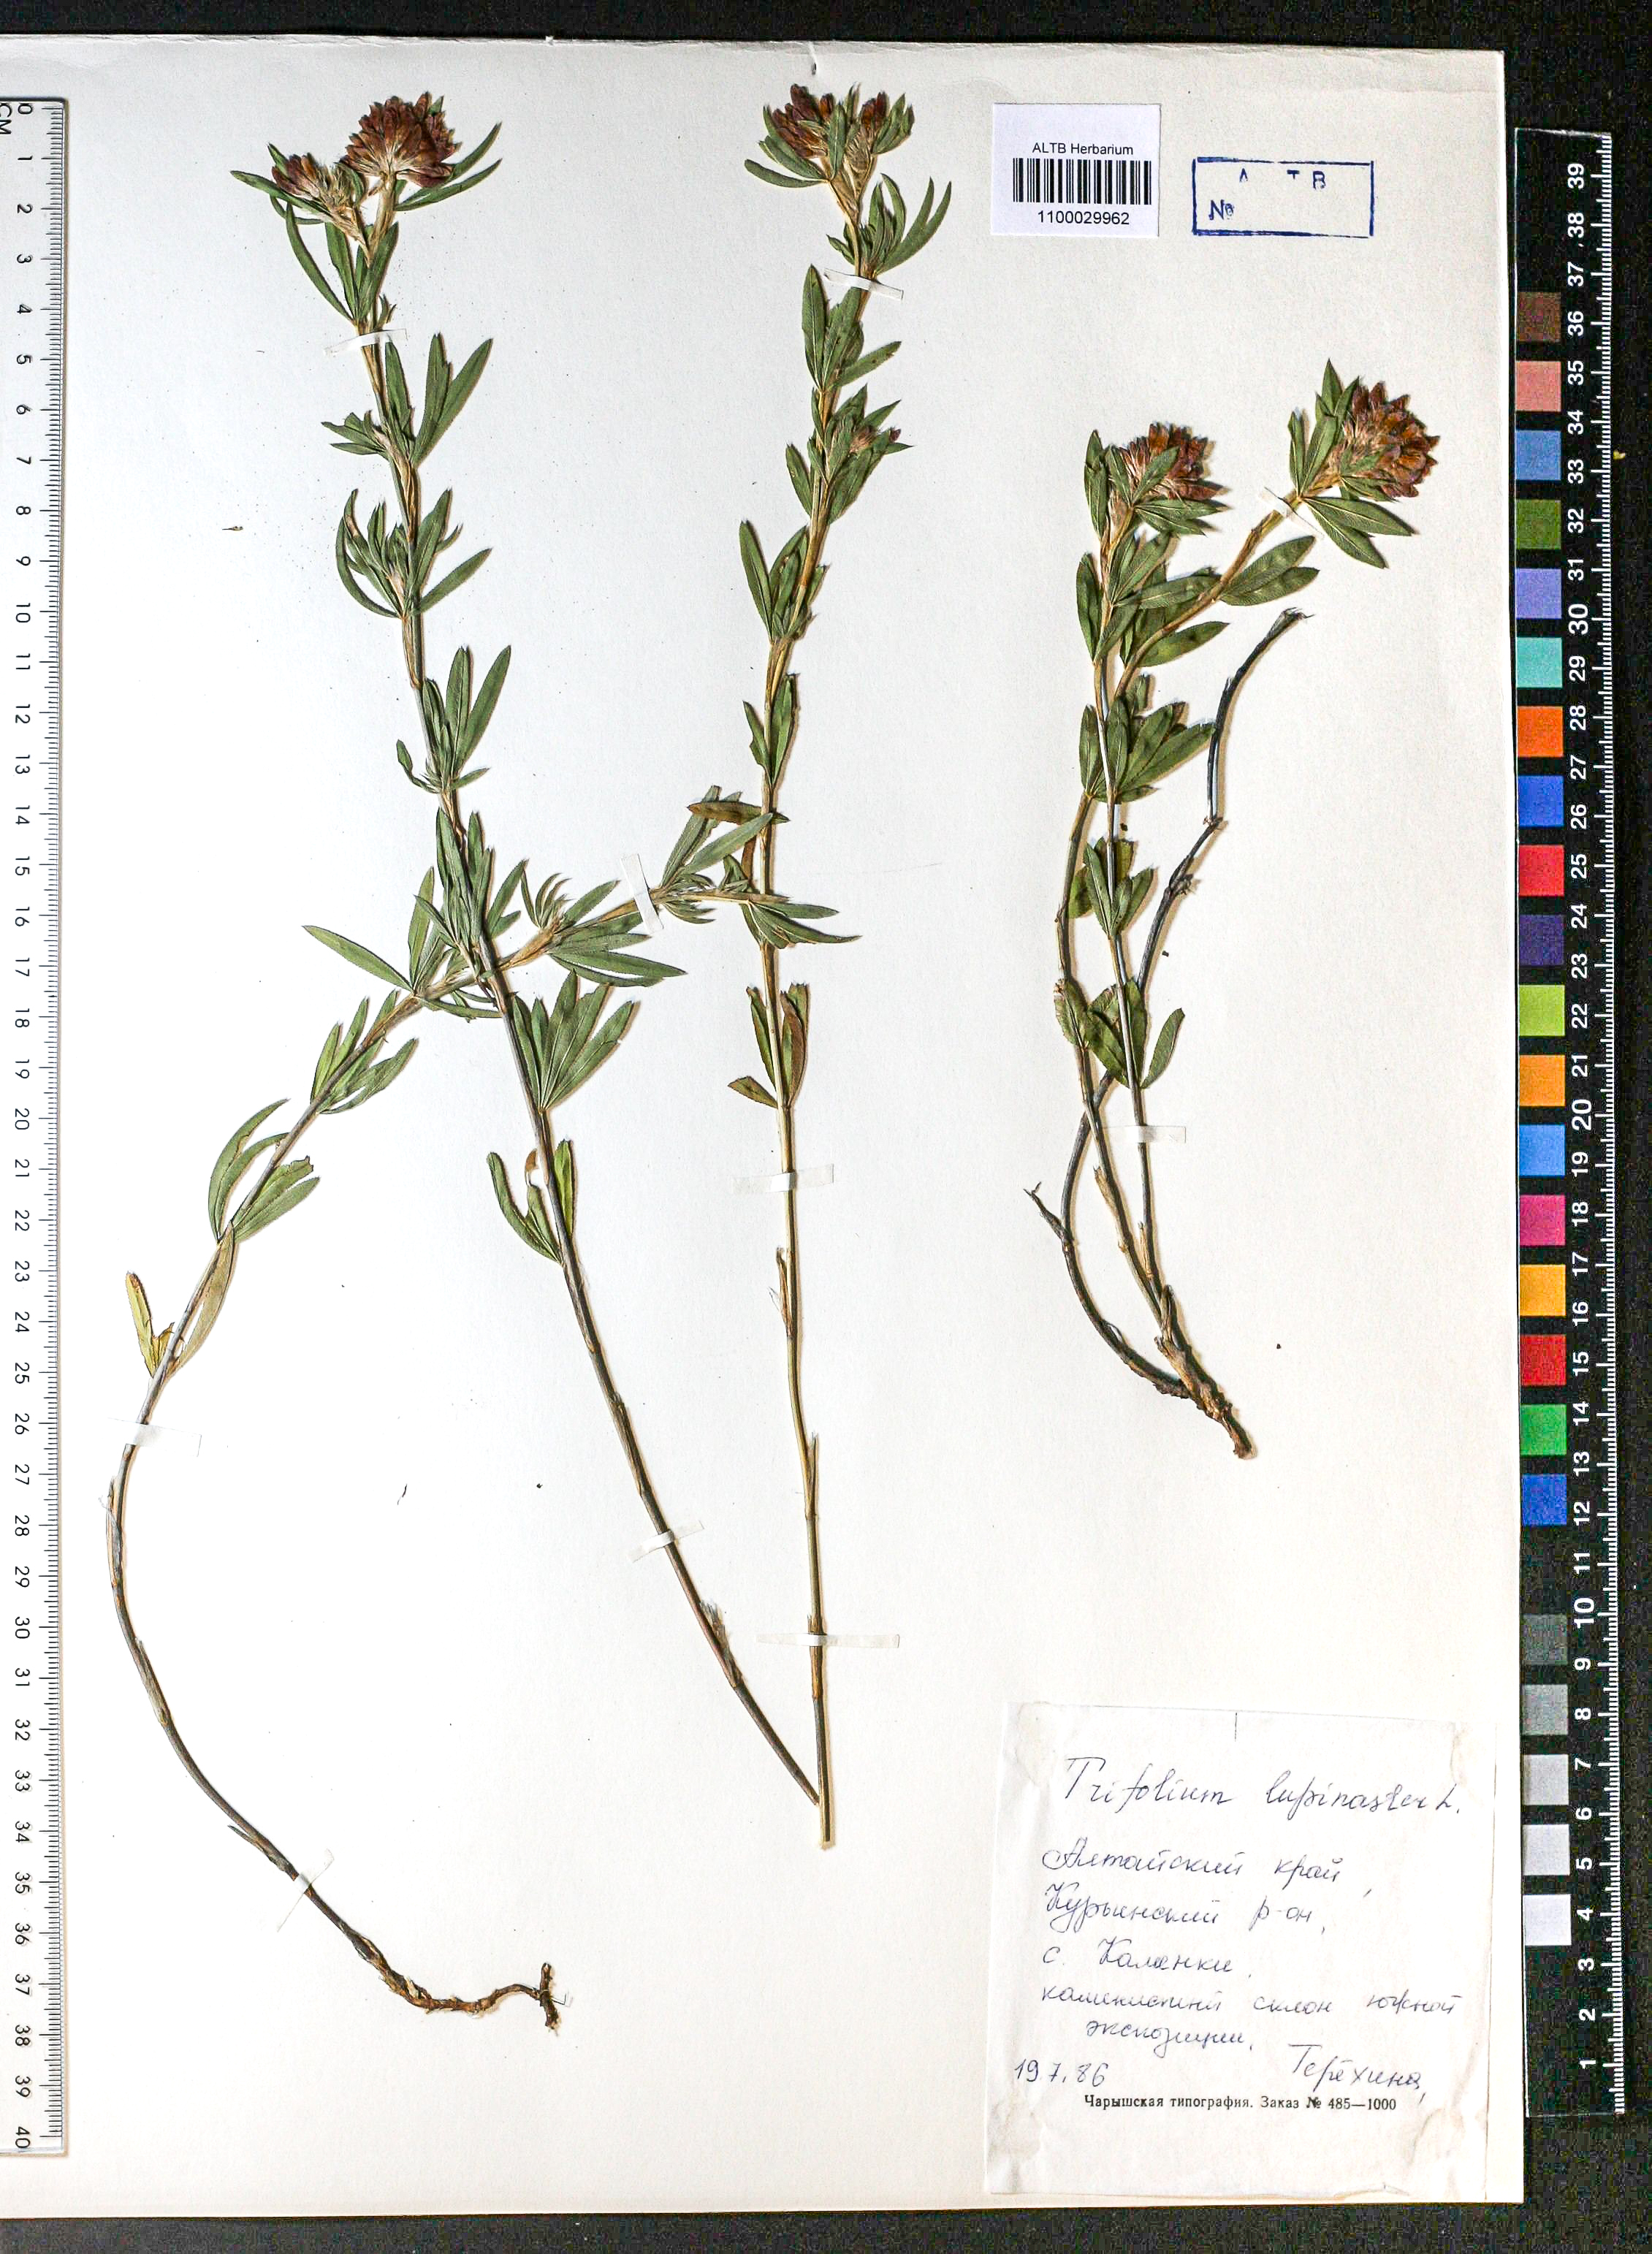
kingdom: Plantae
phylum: Tracheophyta
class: Magnoliopsida
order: Fabales
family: Fabaceae
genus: Trifolium
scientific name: Trifolium lupinaster
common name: Lupine clover
